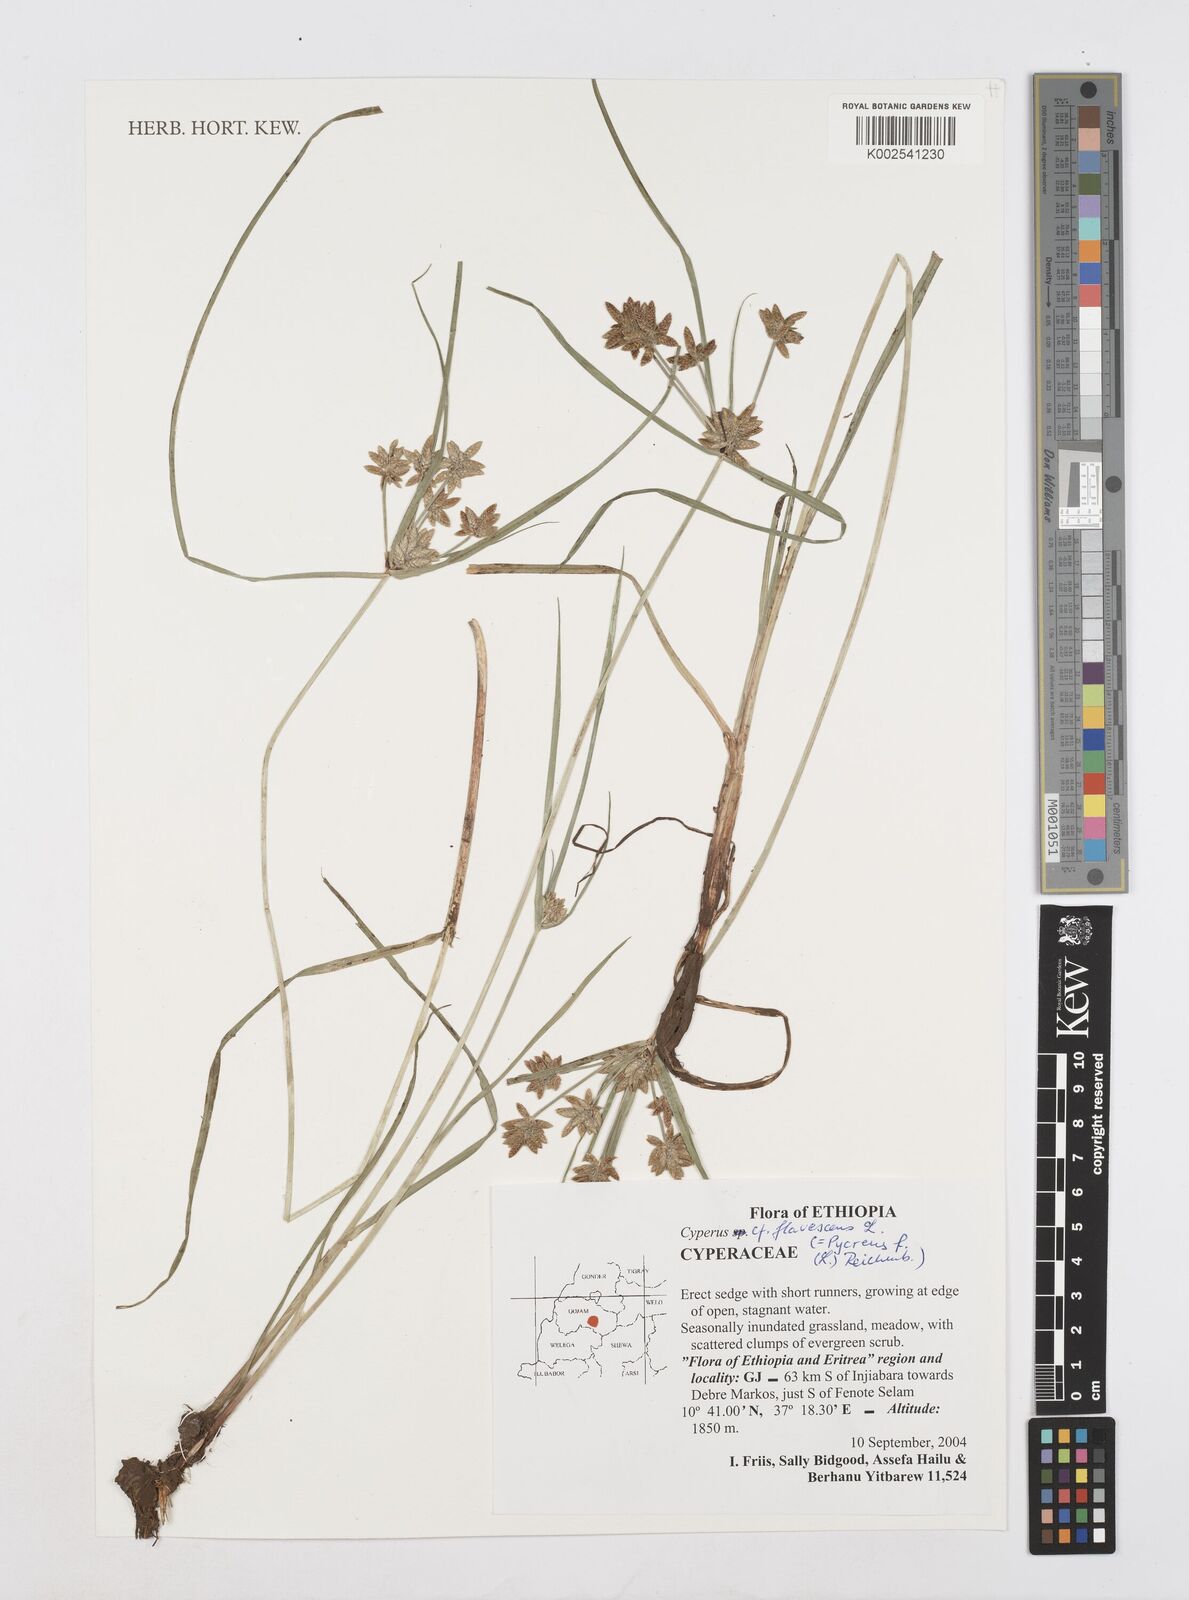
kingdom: Plantae
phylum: Tracheophyta
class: Liliopsida
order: Poales
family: Cyperaceae
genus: Cyperus
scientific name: Cyperus flavescens
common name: Yellow galingale
